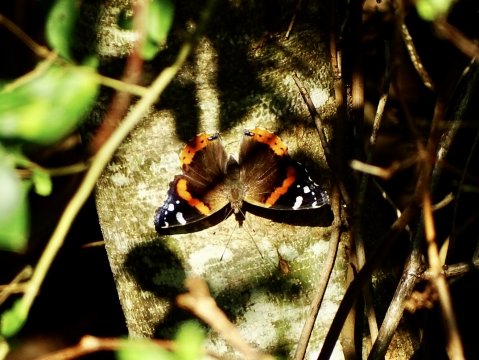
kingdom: Animalia
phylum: Arthropoda
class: Insecta
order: Lepidoptera
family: Nymphalidae
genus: Vanessa
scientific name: Vanessa atalanta
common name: Red Admiral
